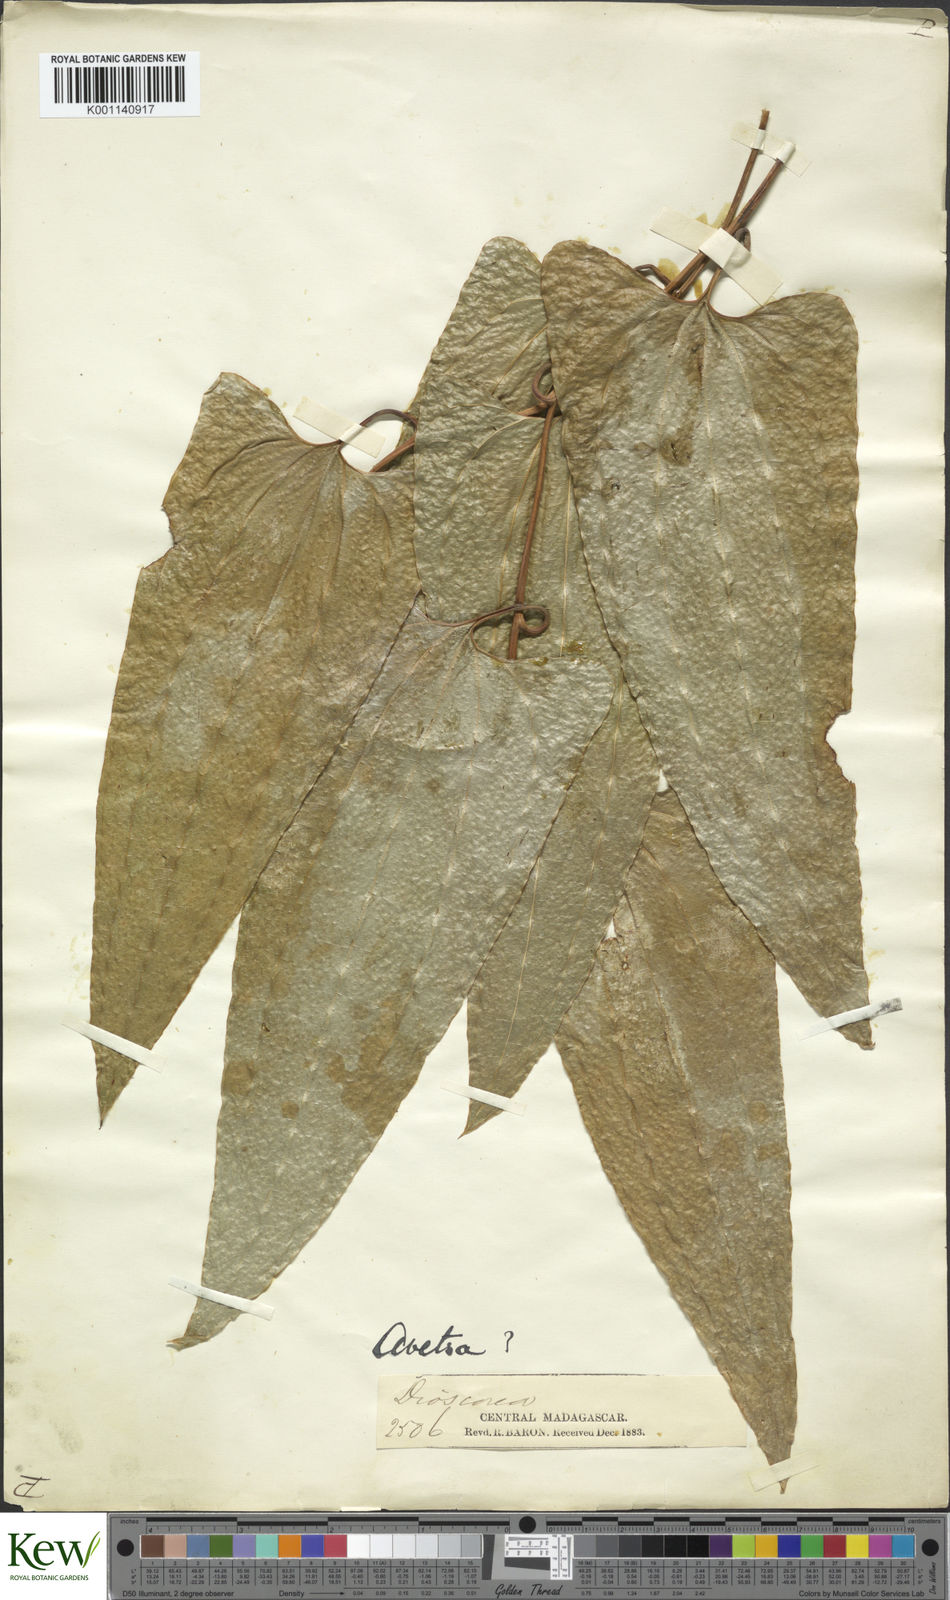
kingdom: Plantae
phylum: Tracheophyta
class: Liliopsida
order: Dioscoreales
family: Dioscoreaceae
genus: Trichopus
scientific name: Trichopus
